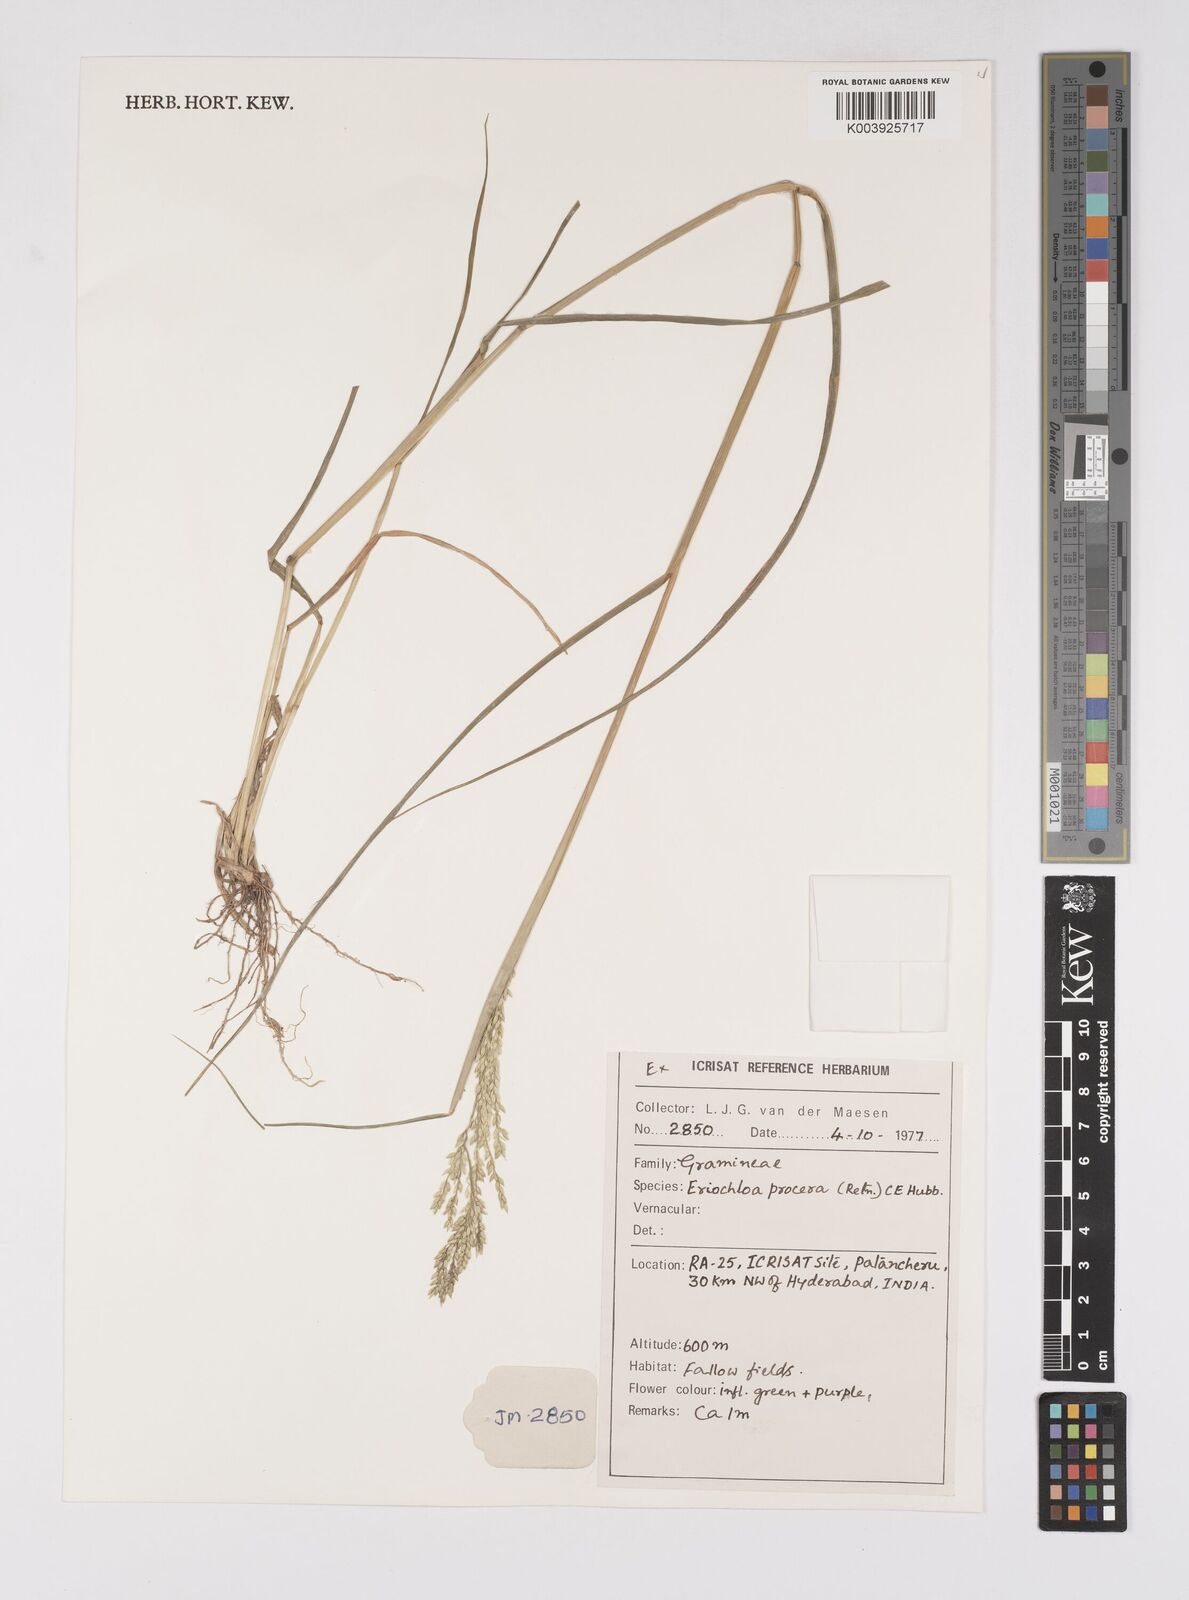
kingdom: Plantae
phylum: Tracheophyta
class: Liliopsida
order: Poales
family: Poaceae
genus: Eriochloa
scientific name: Eriochloa procera
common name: Spring grass
